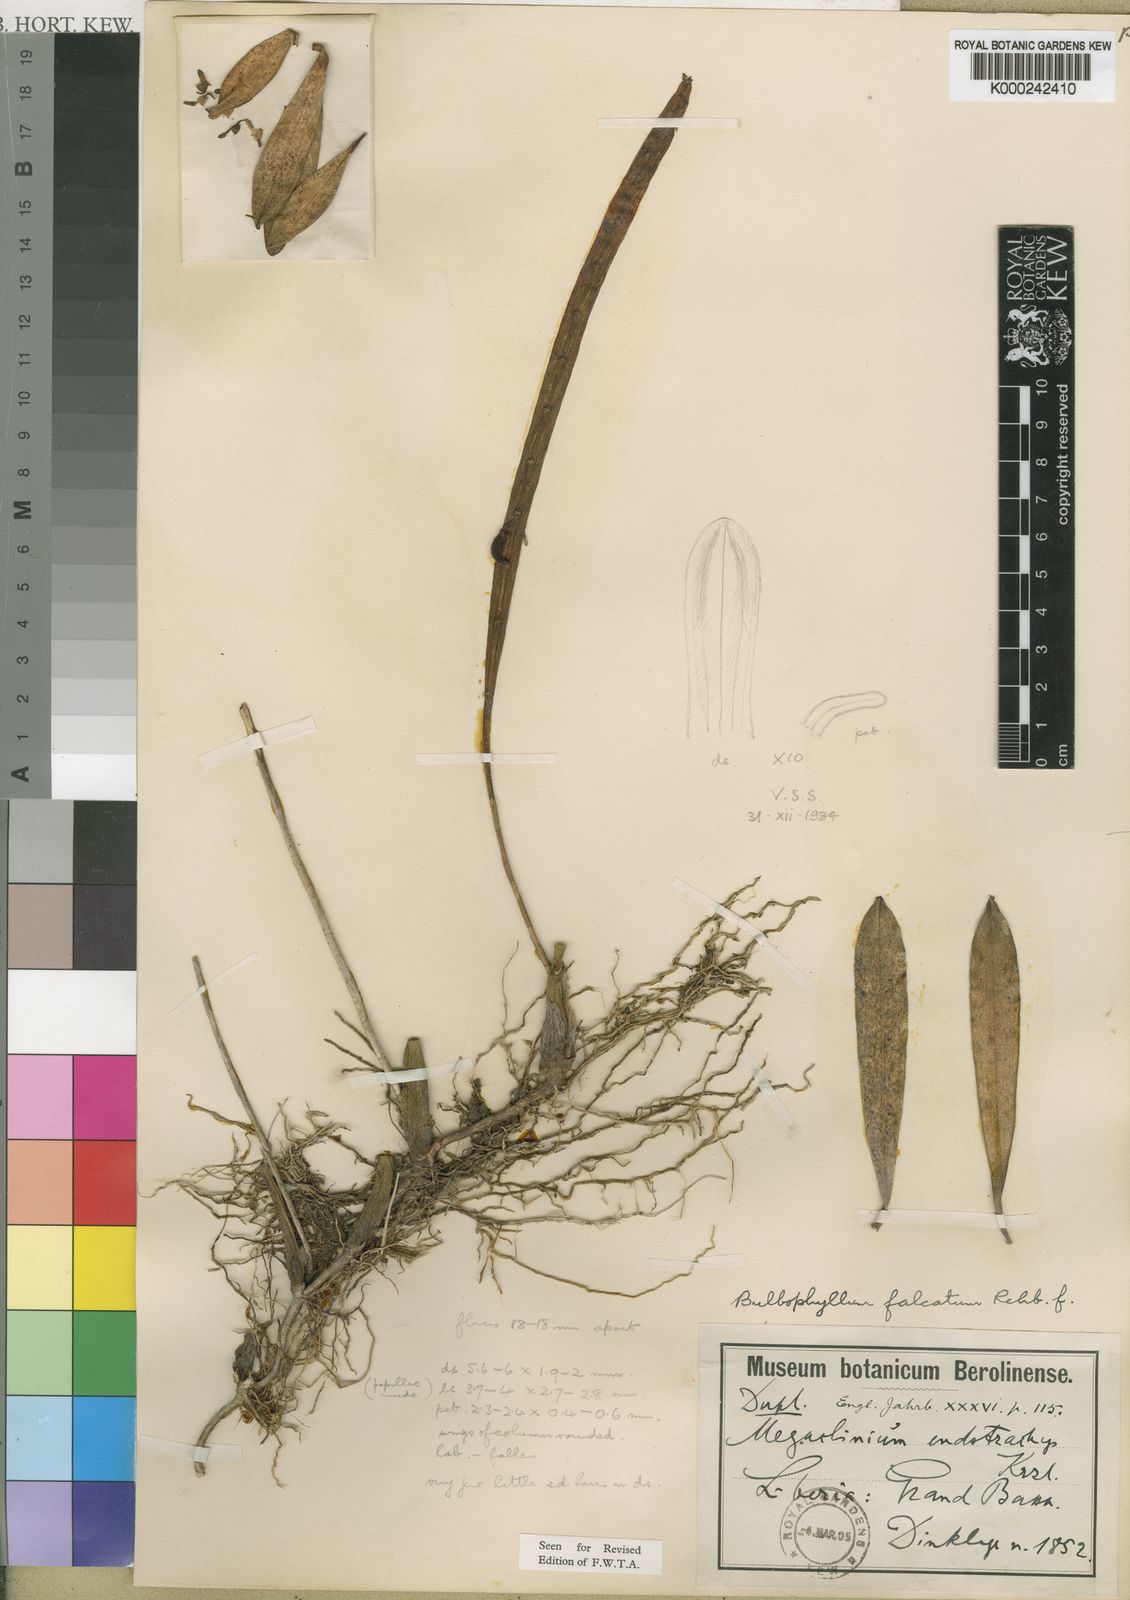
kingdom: Plantae
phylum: Tracheophyta
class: Liliopsida
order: Asparagales
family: Orchidaceae
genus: Bulbophyllum
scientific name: Bulbophyllum falcatum
